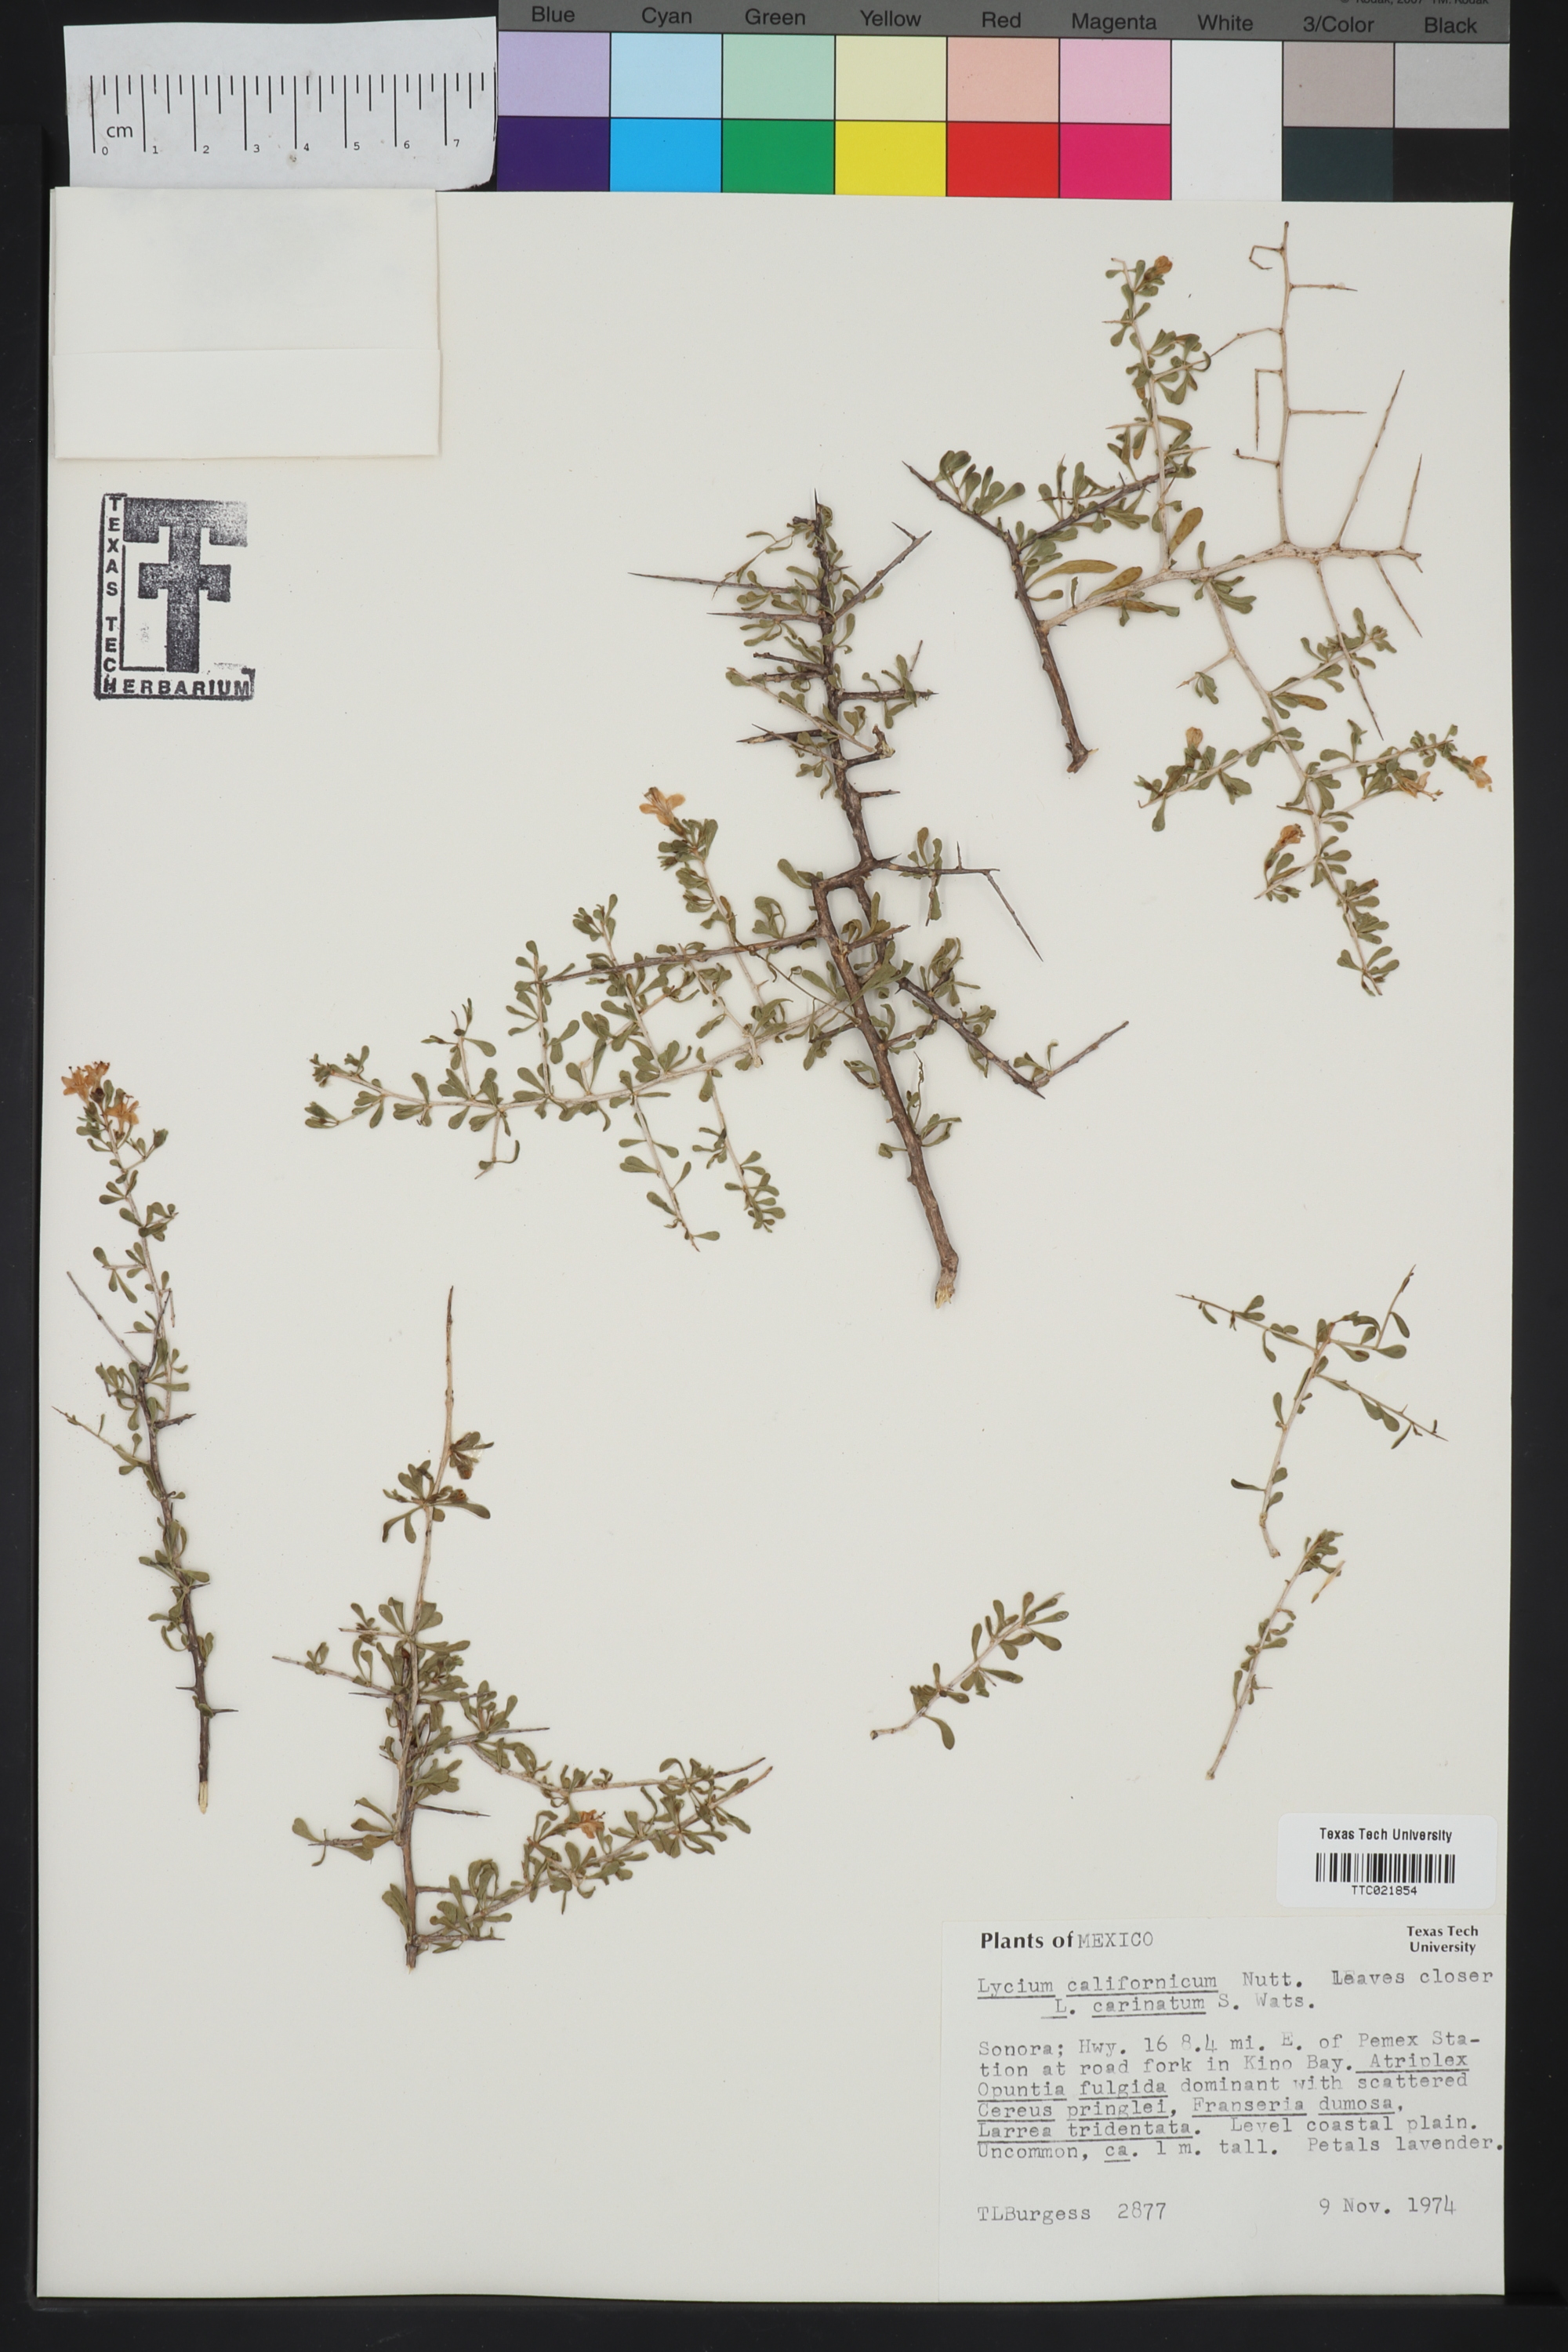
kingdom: Plantae
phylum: Tracheophyta
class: Magnoliopsida
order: Solanales
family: Solanaceae
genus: Lycium
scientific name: Lycium californicum
